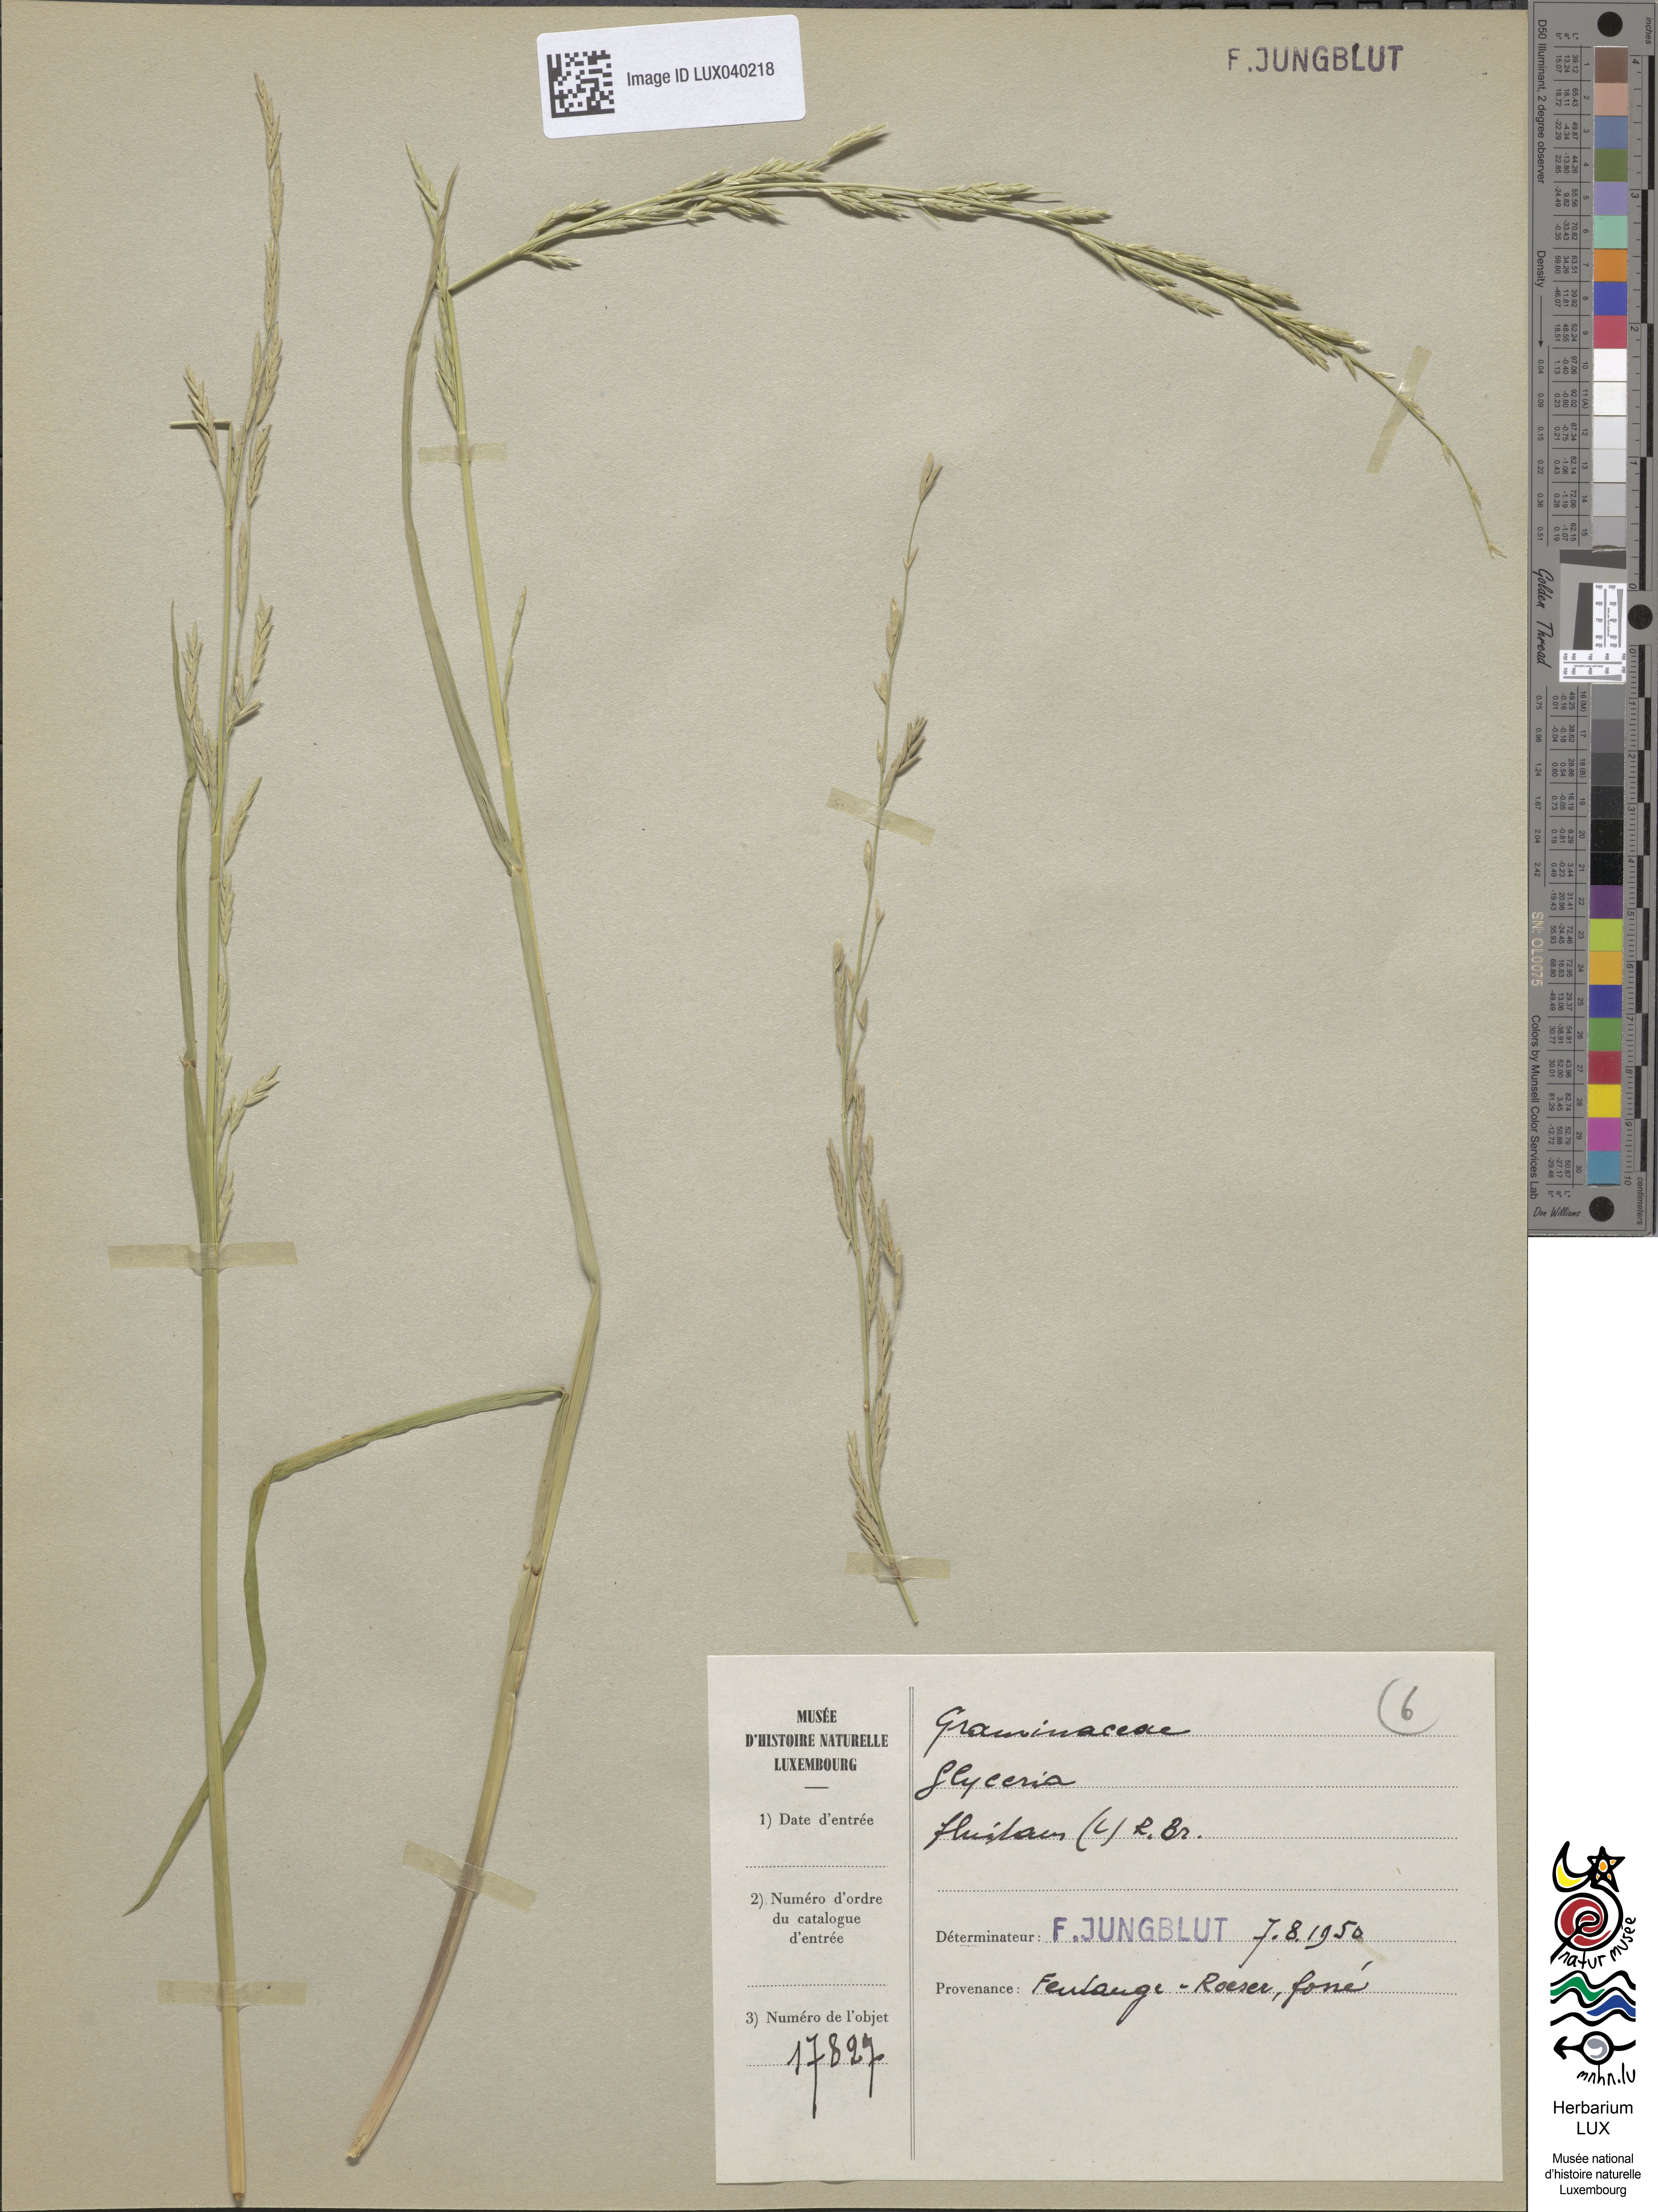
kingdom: Plantae
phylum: Tracheophyta
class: Liliopsida
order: Poales
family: Poaceae
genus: Glyceria
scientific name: Glyceria fluitans
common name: Floating sweet-grass
